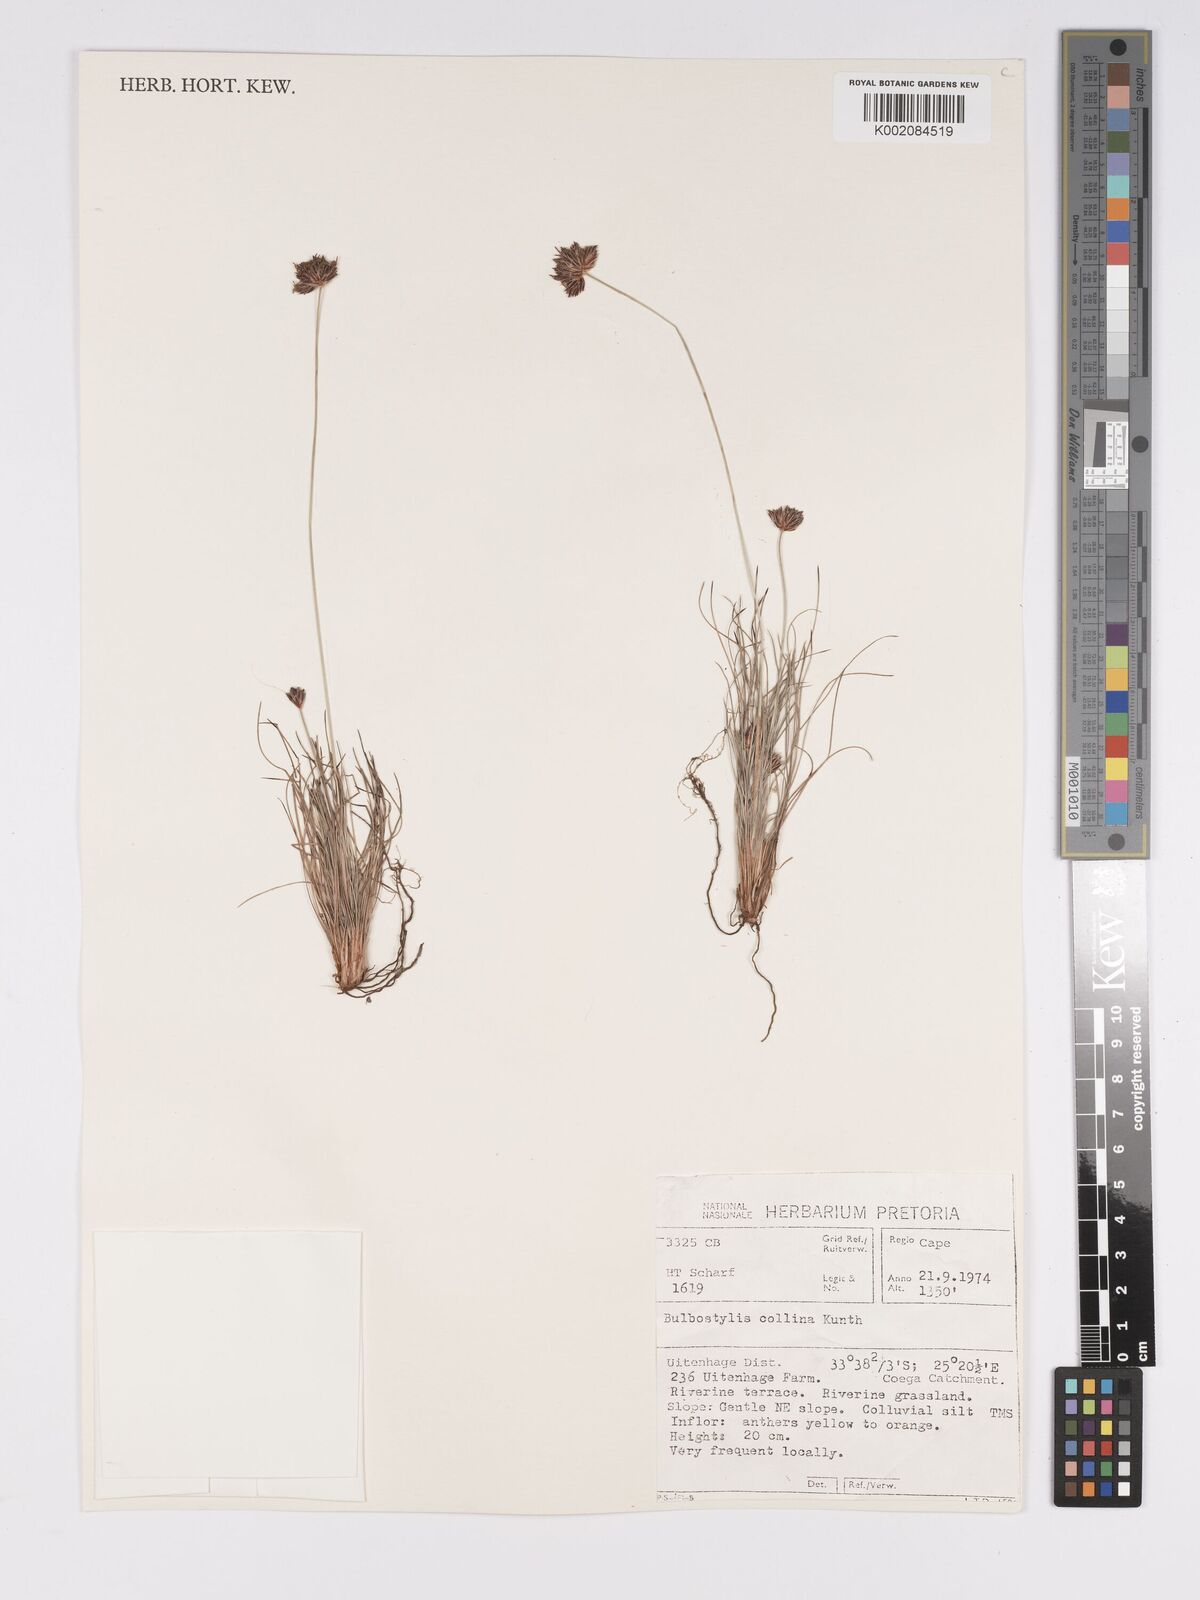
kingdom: Plantae
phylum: Tracheophyta
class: Liliopsida
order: Poales
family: Cyperaceae
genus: Bulbostylis
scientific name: Bulbostylis contexta
